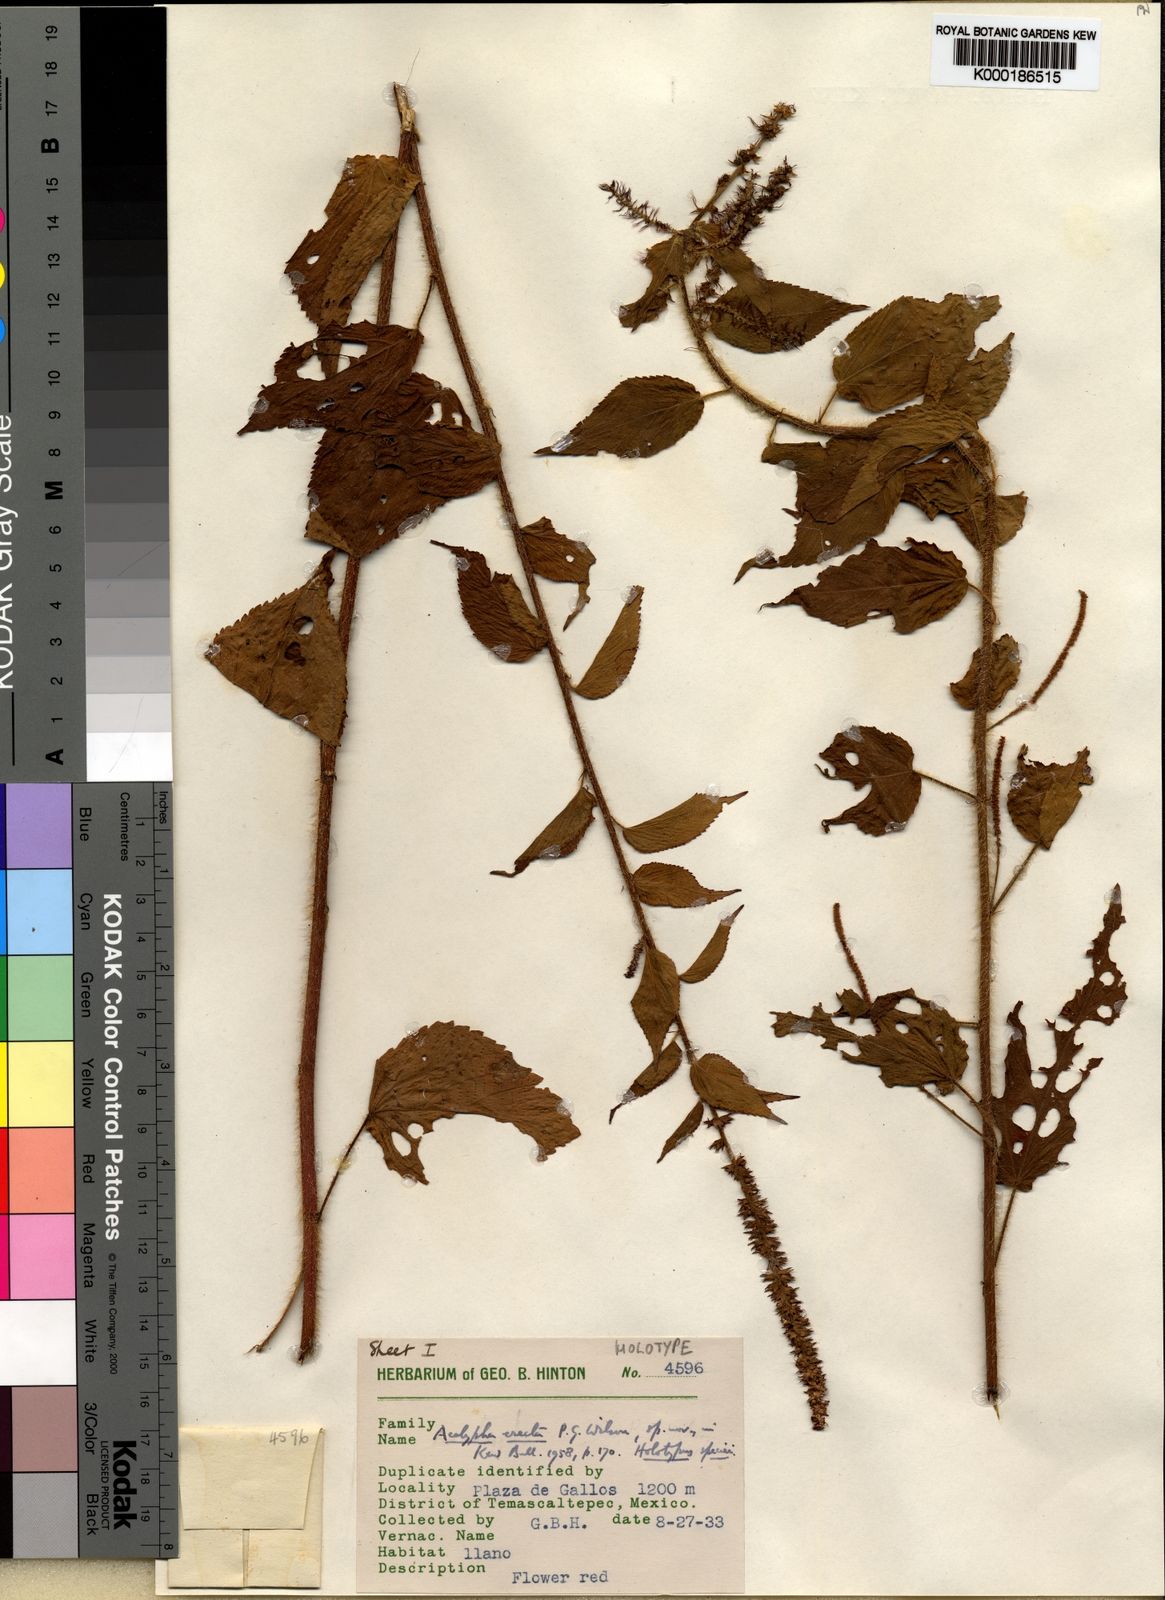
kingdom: Plantae
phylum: Tracheophyta
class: Magnoliopsida
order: Malpighiales
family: Euphorbiaceae
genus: Acalypha
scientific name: Acalypha erecta
